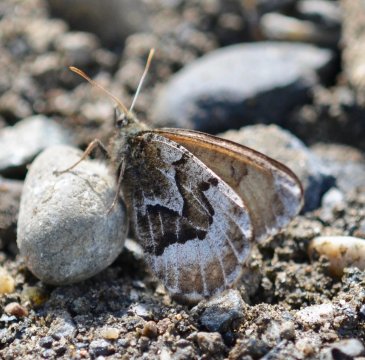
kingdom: Animalia
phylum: Arthropoda
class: Insecta
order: Lepidoptera
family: Nymphalidae
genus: Oeneis
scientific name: Oeneis bore
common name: White-veined Arctic
